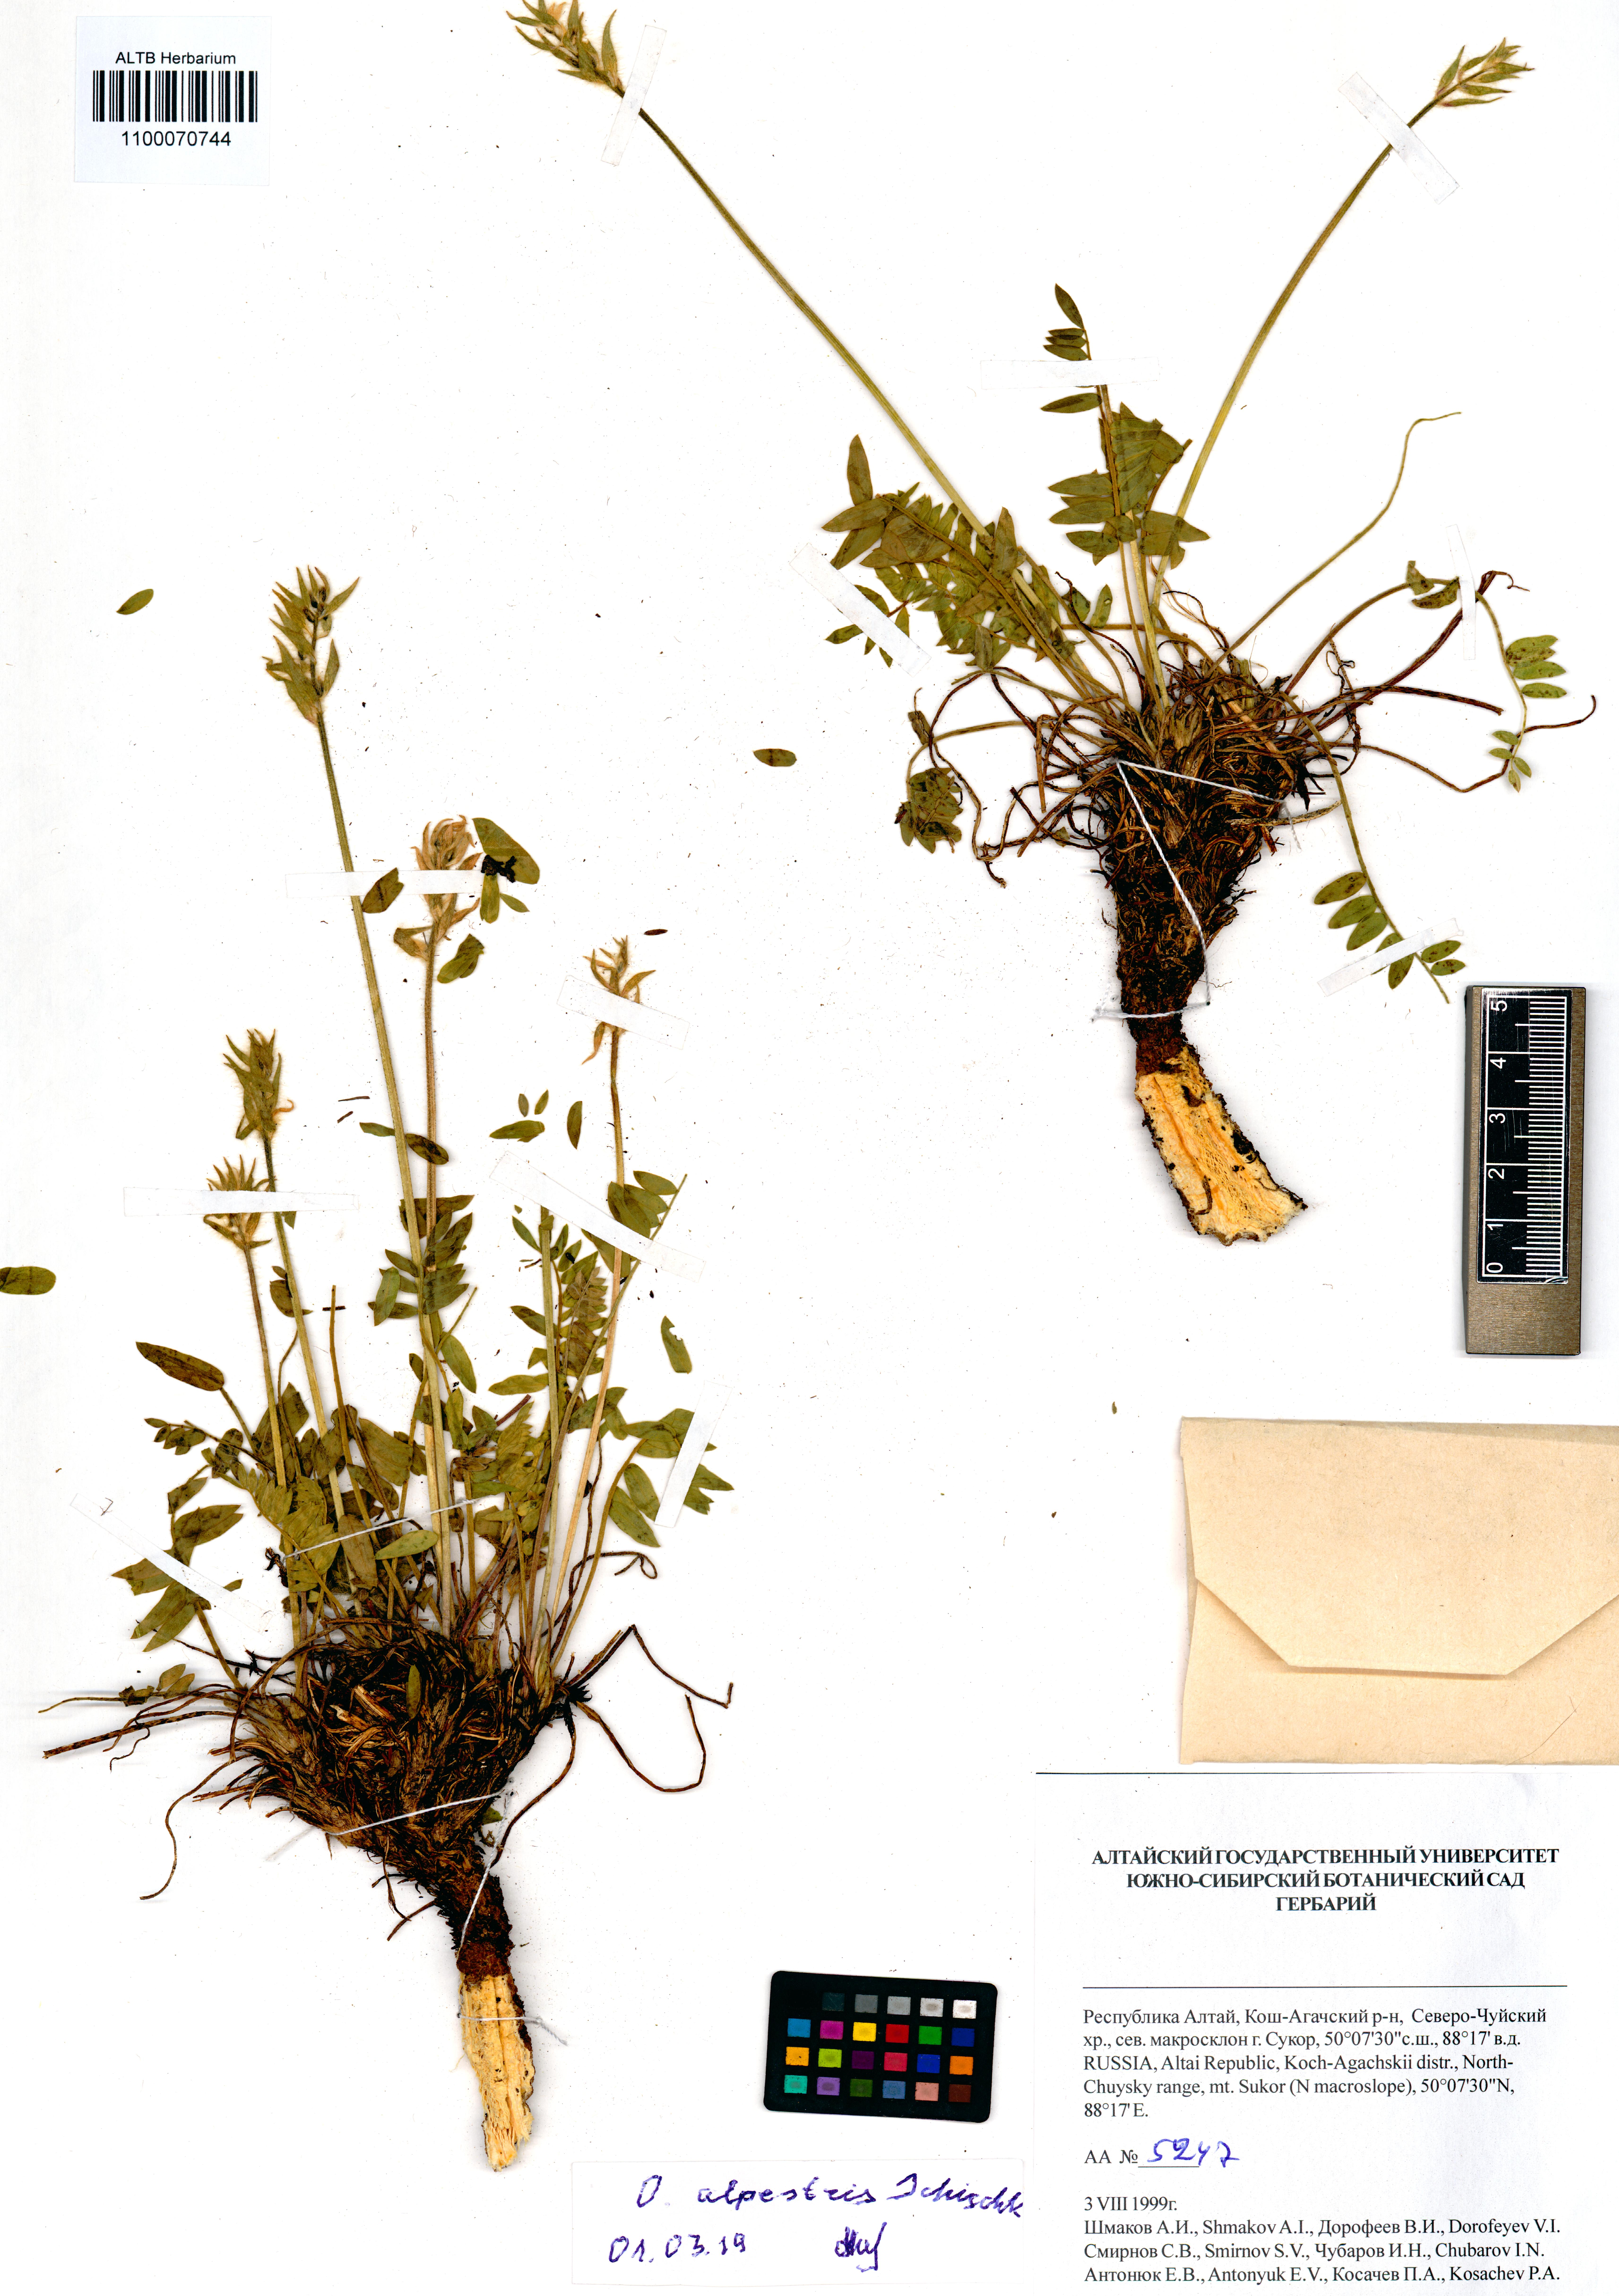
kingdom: Plantae
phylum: Tracheophyta
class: Magnoliopsida
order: Fabales
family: Fabaceae
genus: Oxytropis
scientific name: Oxytropis alpestris
